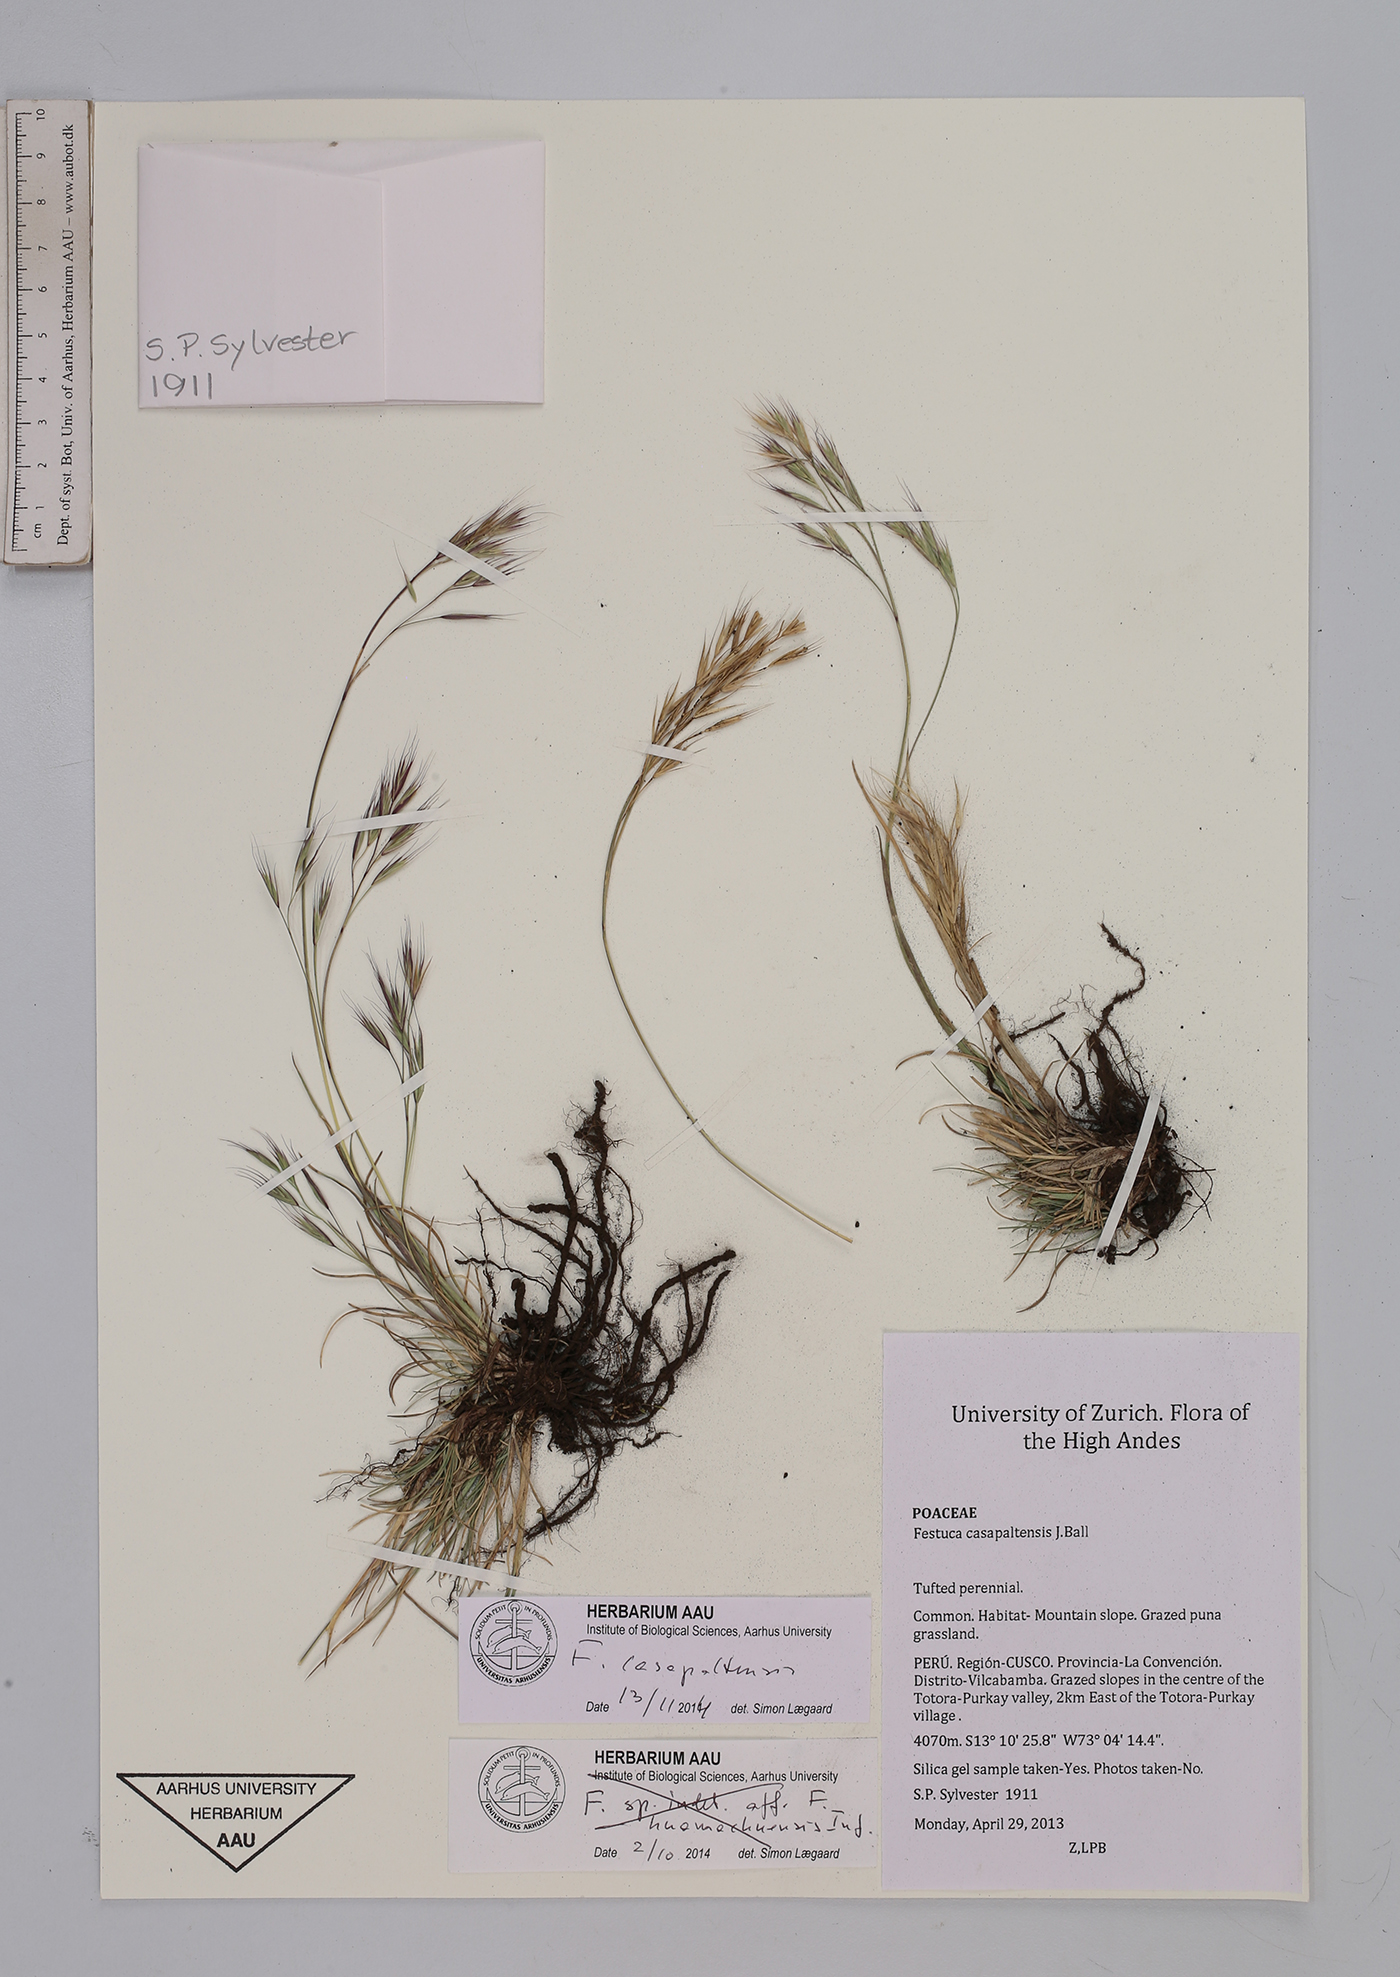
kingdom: Plantae
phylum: Tracheophyta
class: Liliopsida
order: Poales
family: Poaceae
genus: Festuca
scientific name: Festuca casapaltensis
